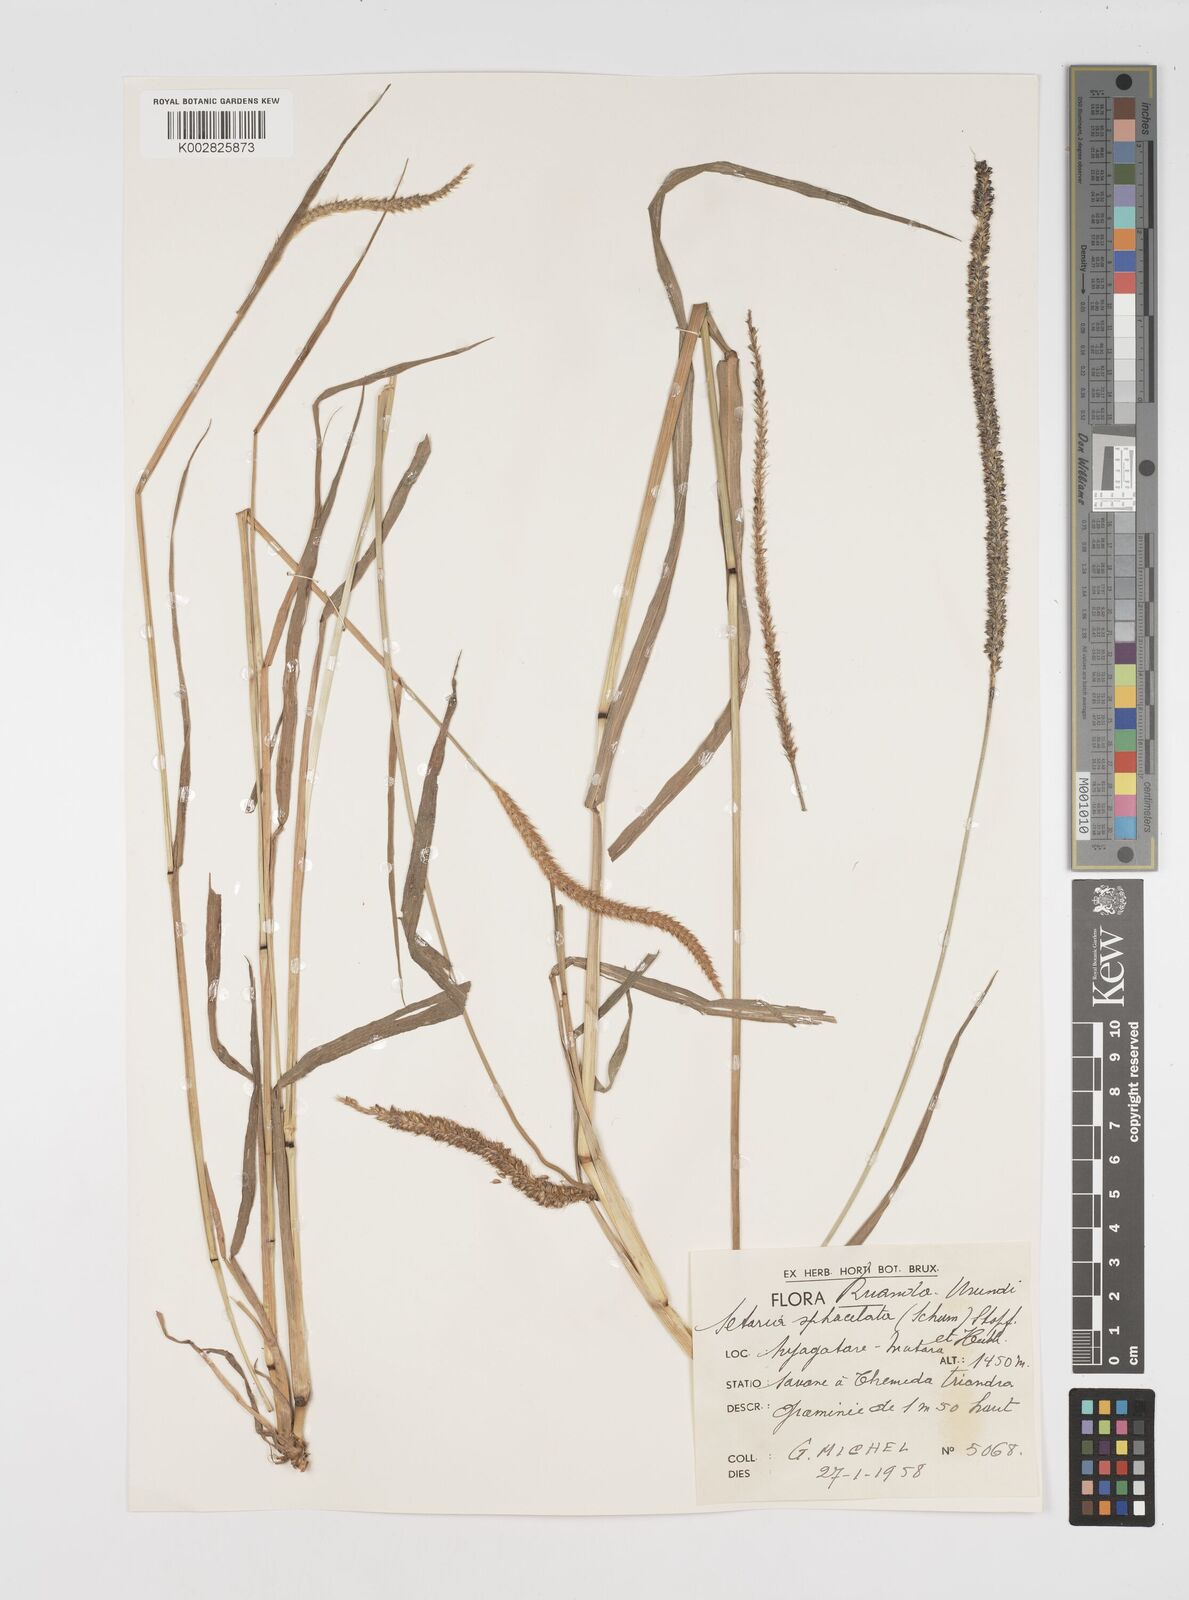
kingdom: Plantae
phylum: Tracheophyta
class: Liliopsida
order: Poales
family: Poaceae
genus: Setaria
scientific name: Setaria sphacelata
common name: African bristlegrass
